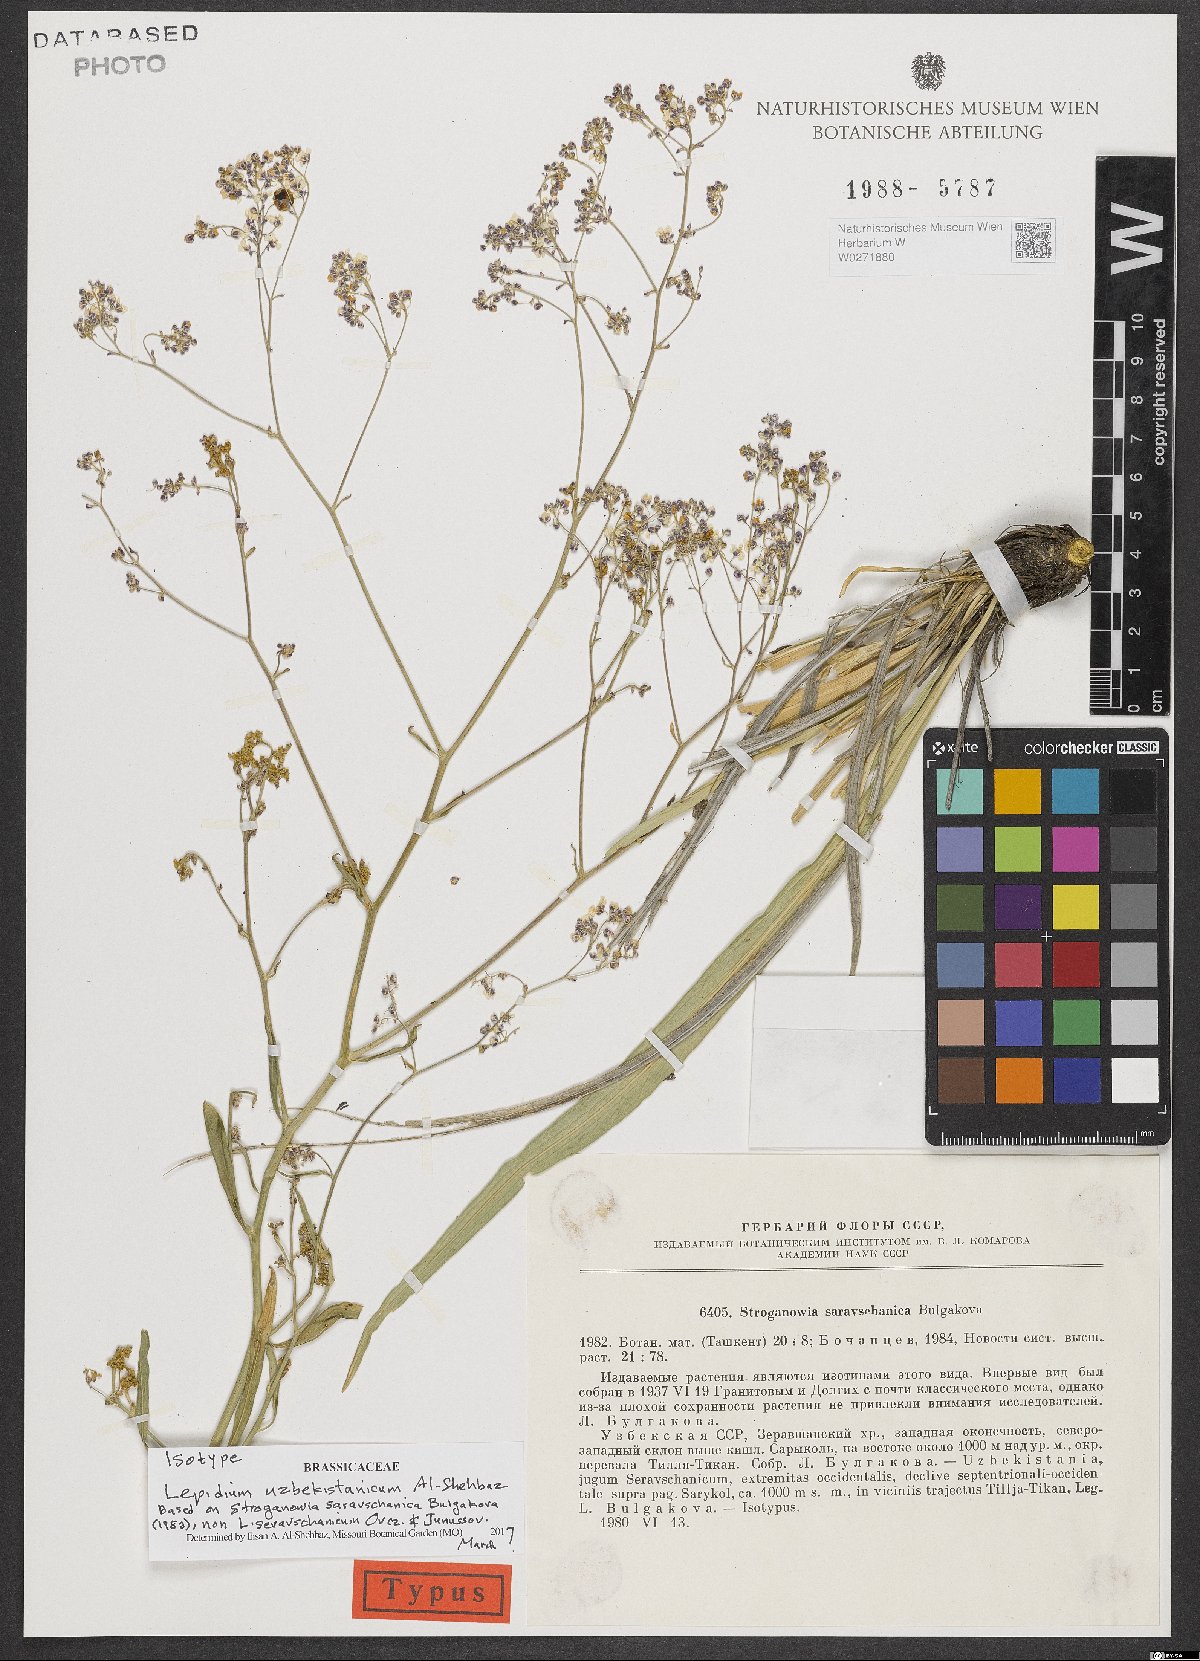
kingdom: Plantae
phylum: Tracheophyta
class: Magnoliopsida
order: Brassicales
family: Brassicaceae
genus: Lepidium
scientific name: Lepidium uzbekistanicum
